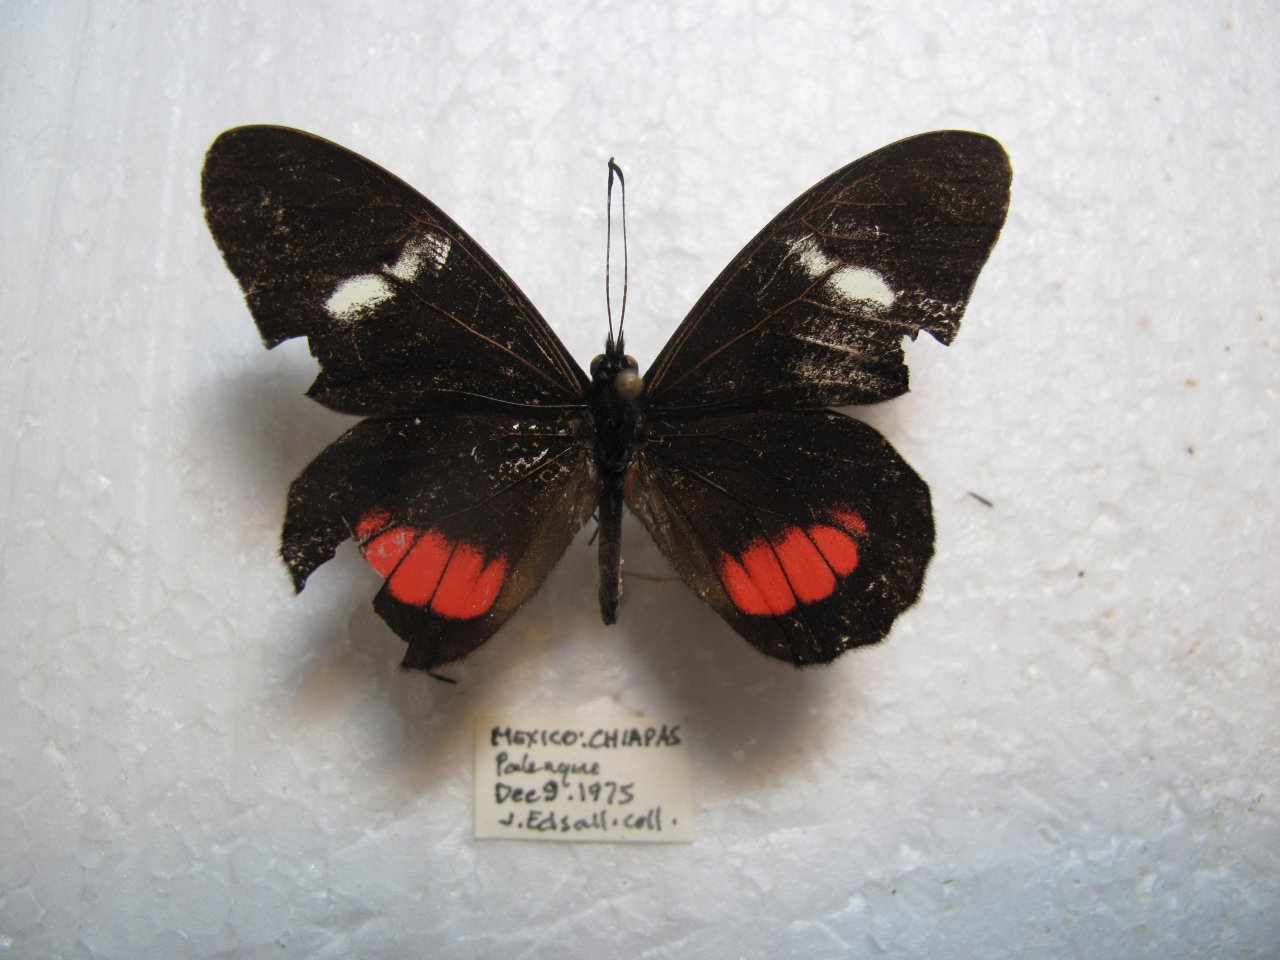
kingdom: Animalia
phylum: Arthropoda
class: Insecta
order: Lepidoptera
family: Pieridae
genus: Archonias
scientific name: Archonias brassolis
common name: Cattleheart White
